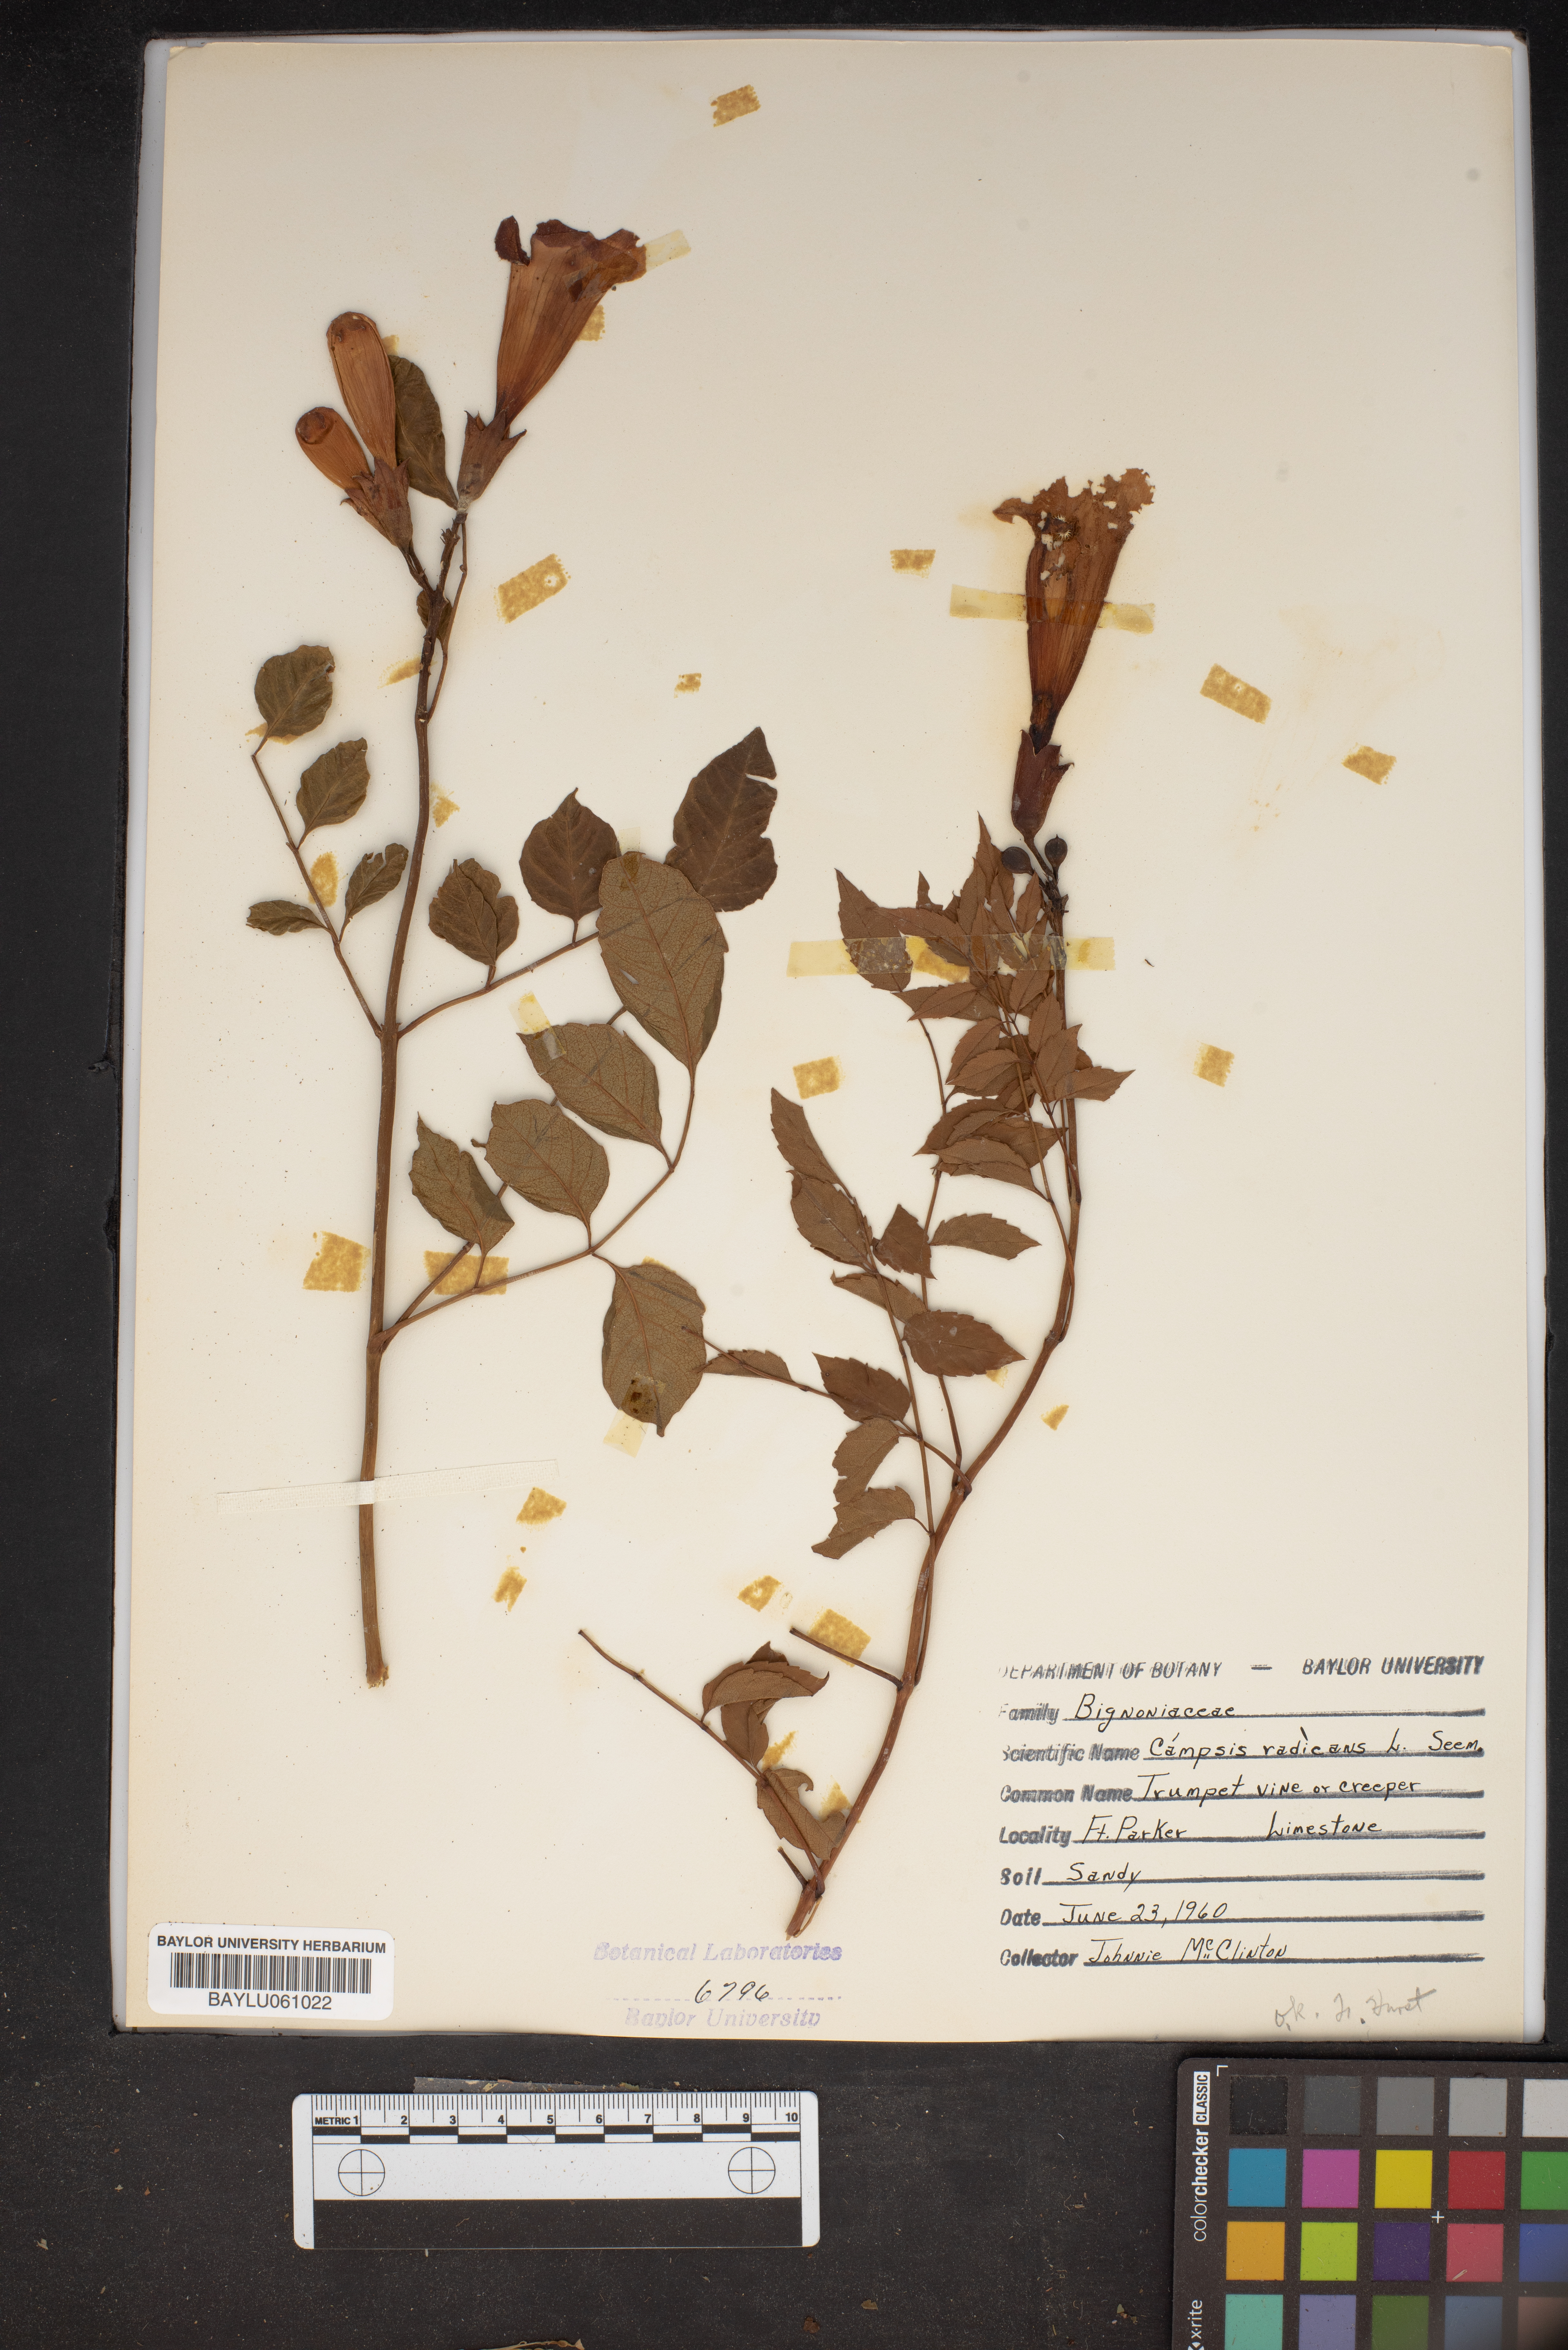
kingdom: Plantae
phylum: Tracheophyta
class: Magnoliopsida
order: Lamiales
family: Bignoniaceae
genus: Campsis
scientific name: Campsis radicans
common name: Trumpet-creeper
